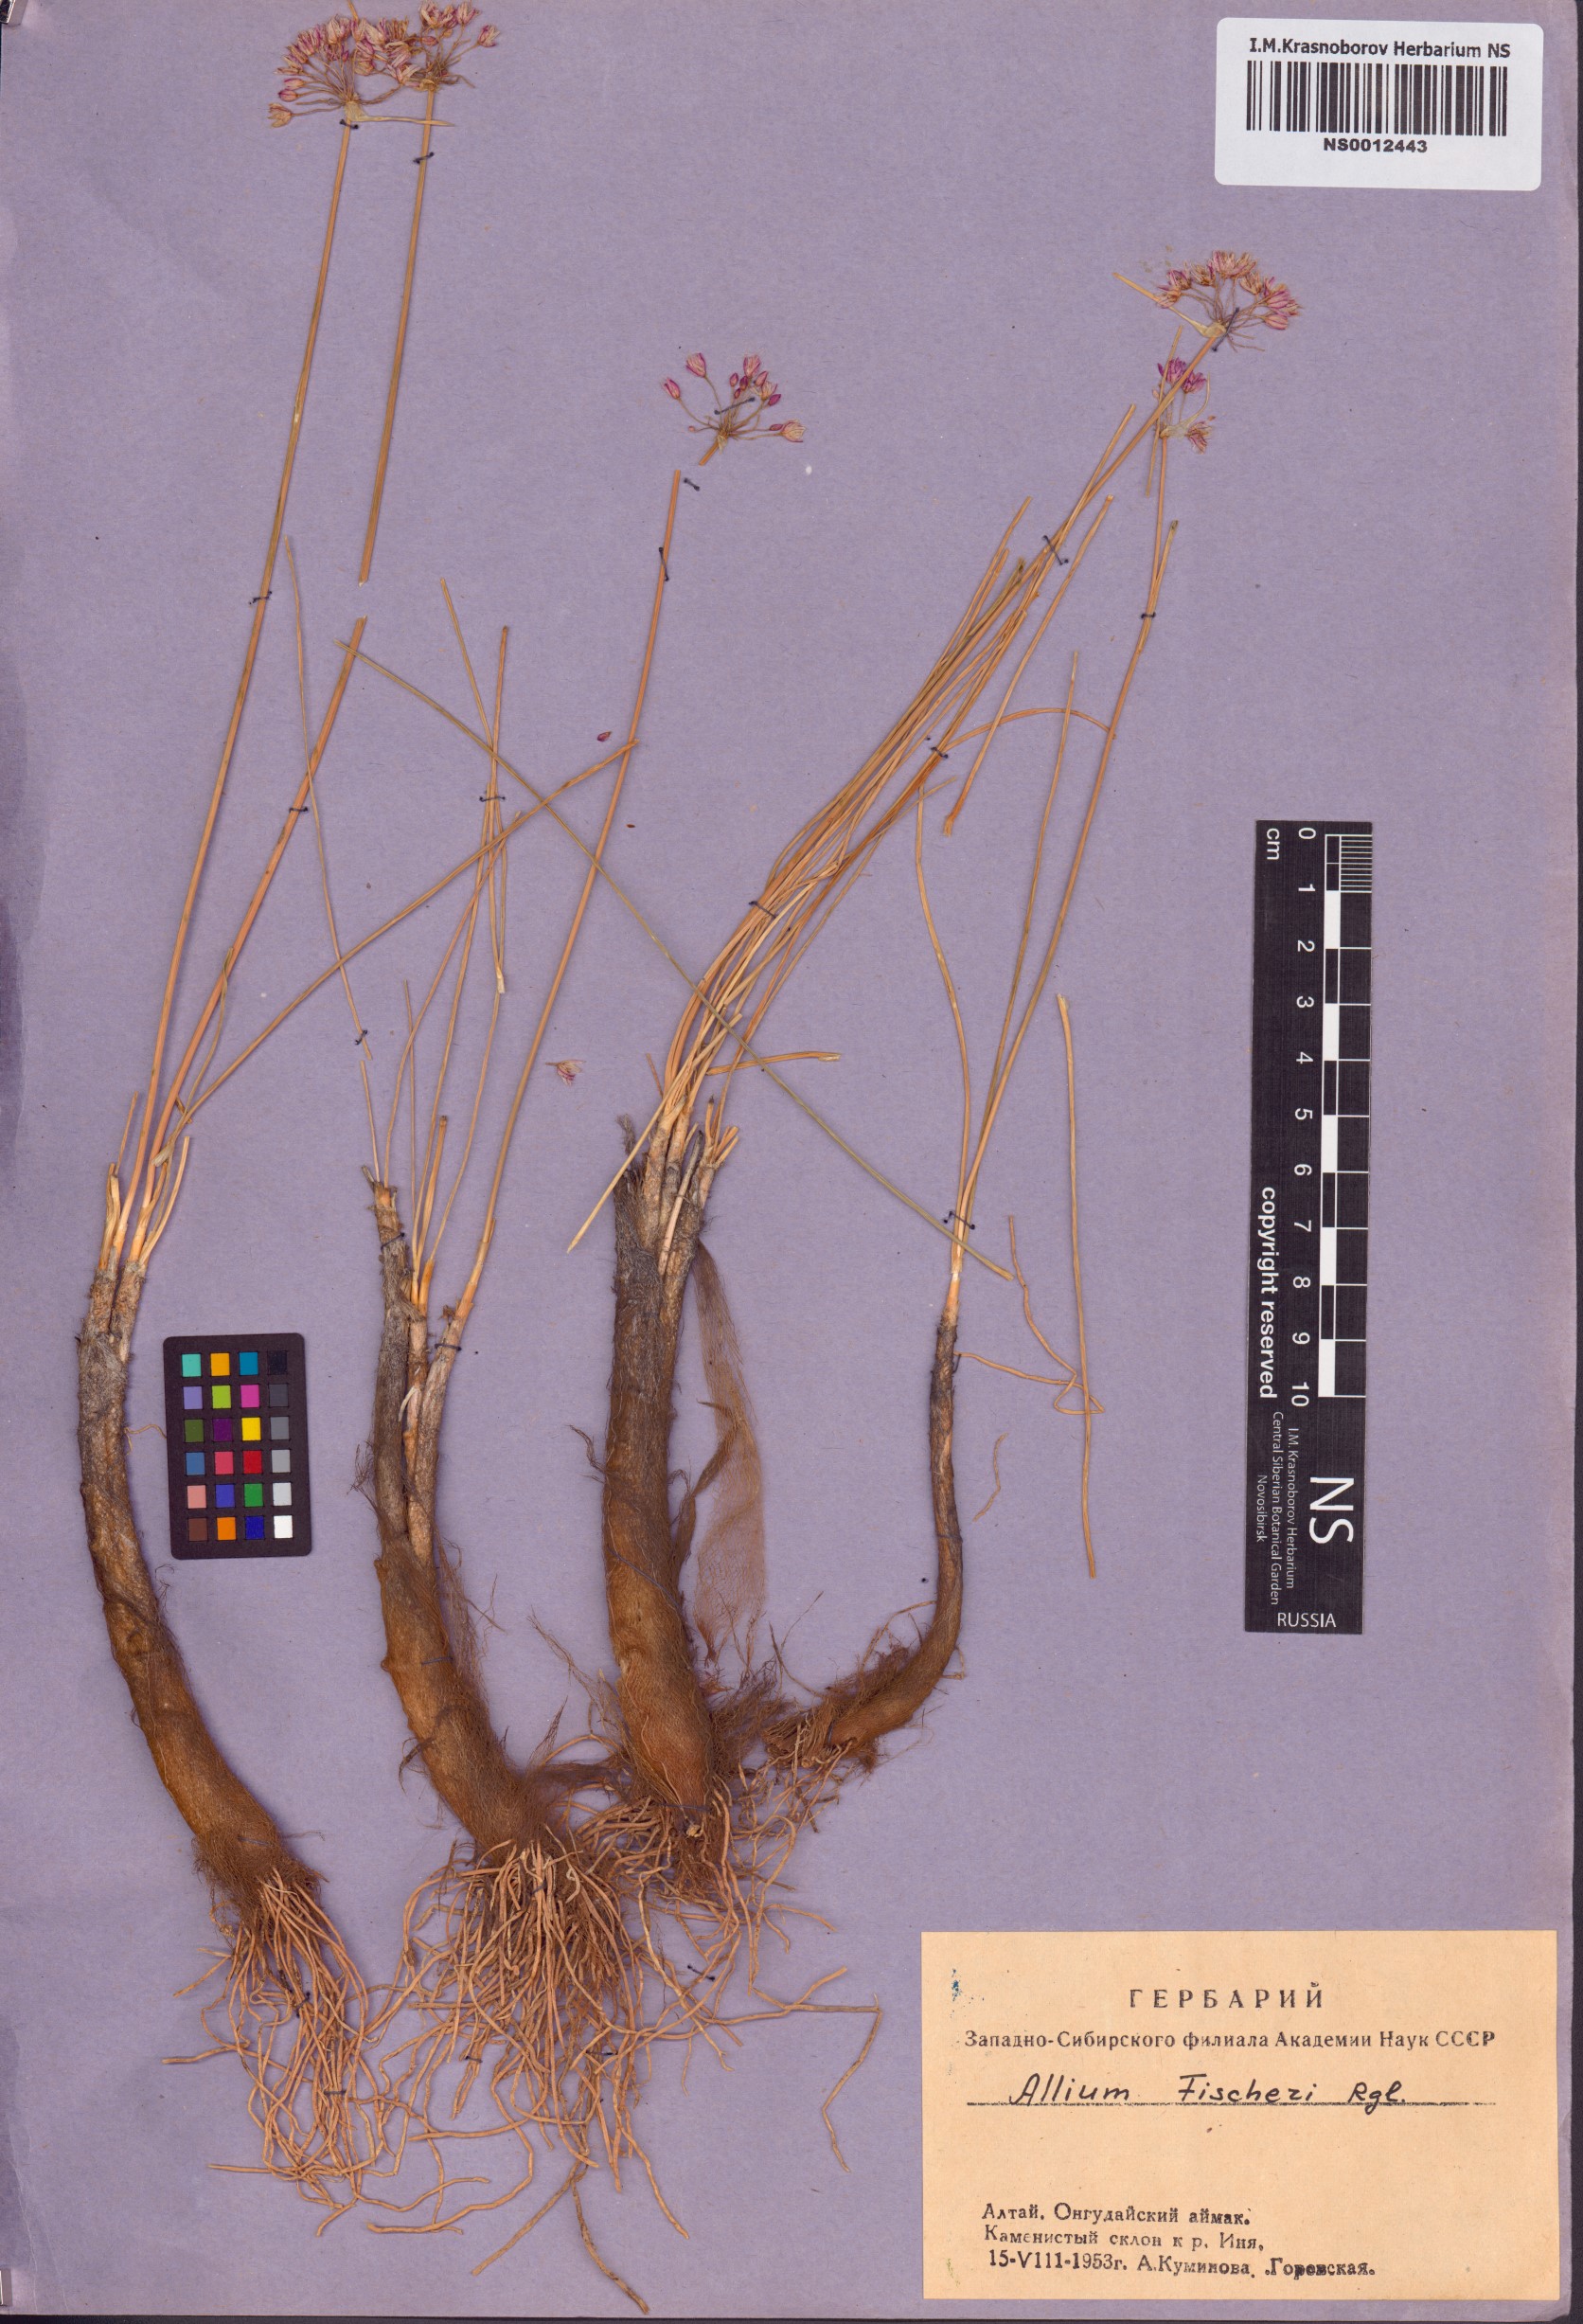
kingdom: Plantae
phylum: Tracheophyta
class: Liliopsida
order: Asparagales
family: Amaryllidaceae
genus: Allium
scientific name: Allium eduardi
